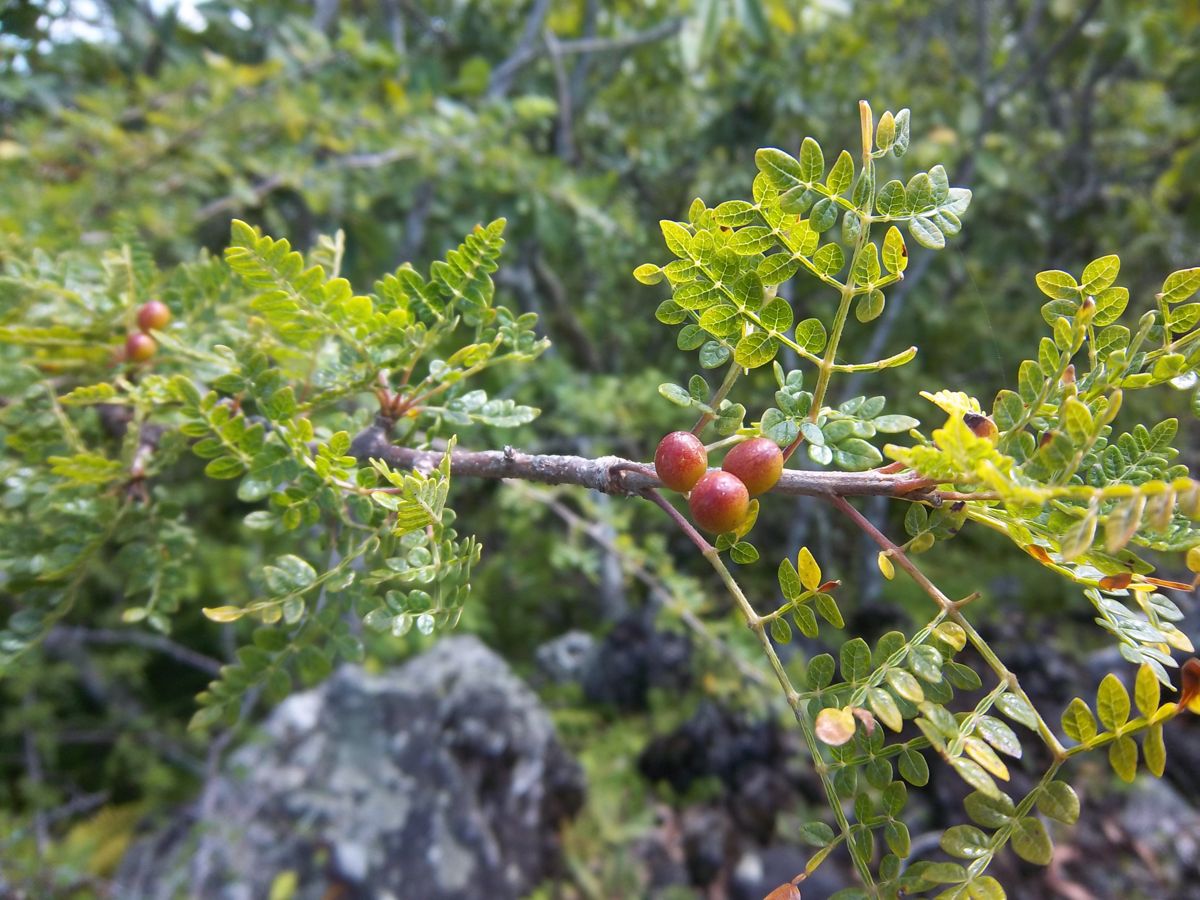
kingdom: Plantae
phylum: Tracheophyta
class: Magnoliopsida
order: Sapindales
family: Burseraceae
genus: Bursera
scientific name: Bursera bipinnata
